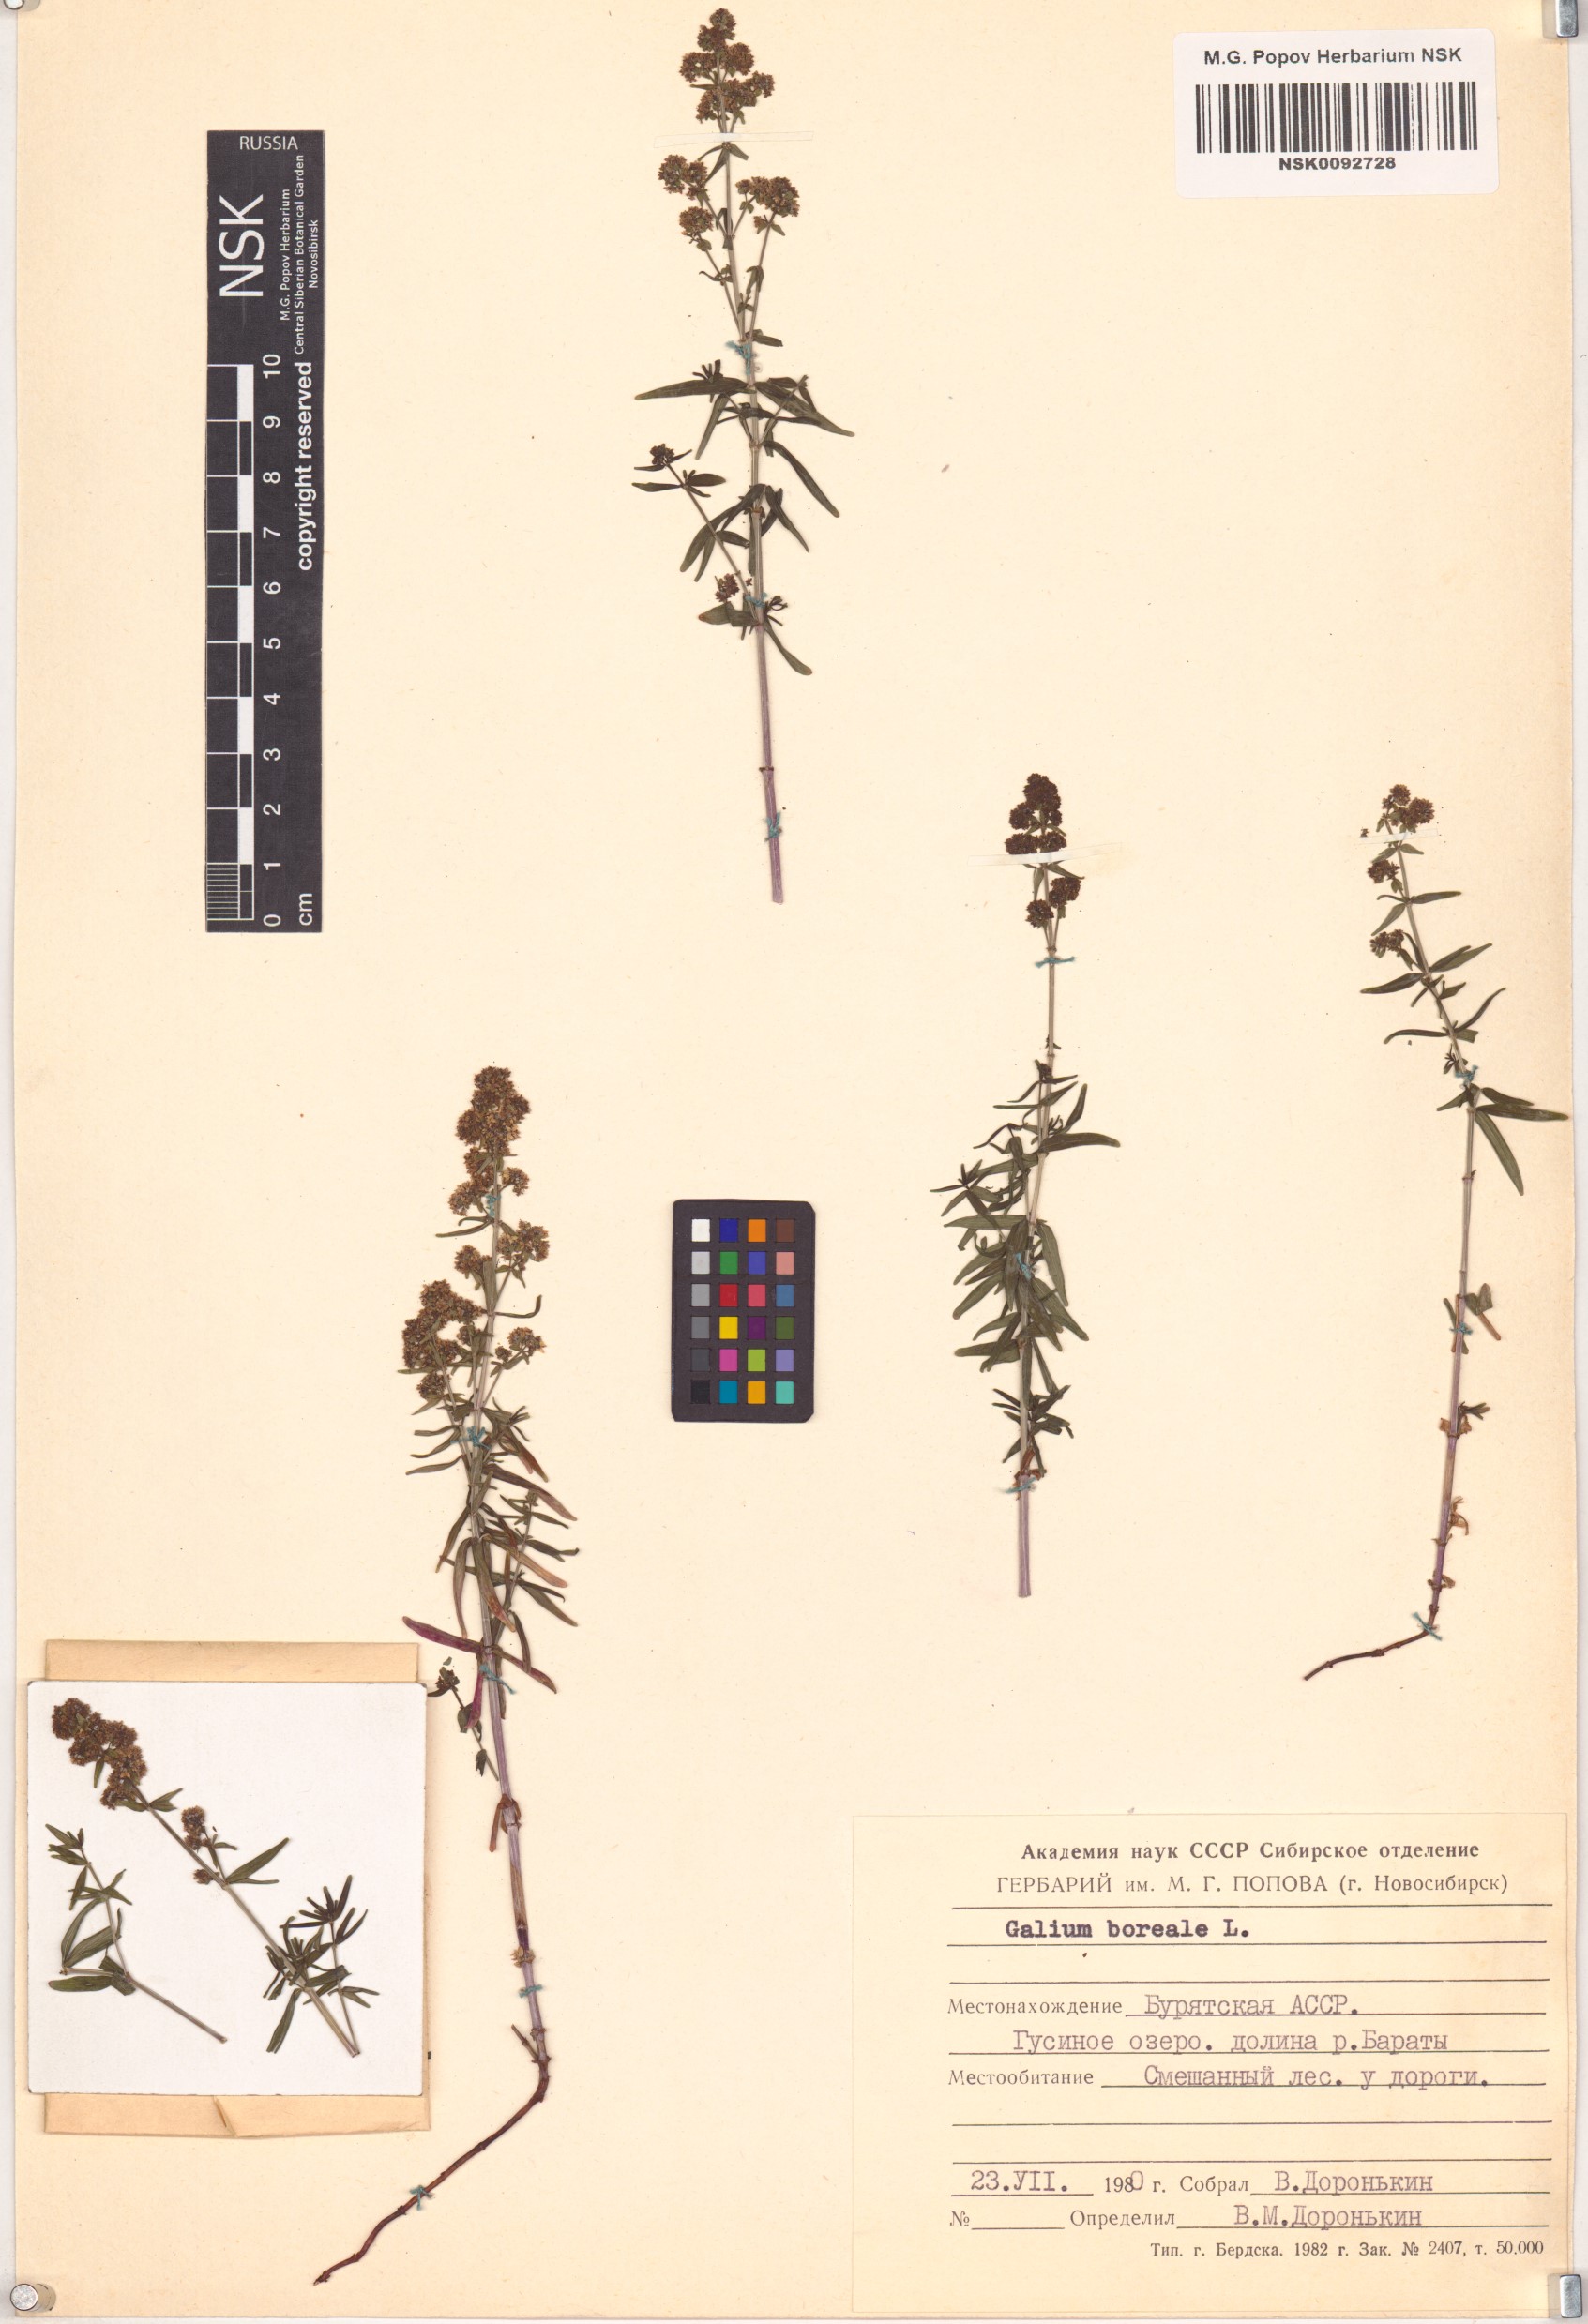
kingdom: Plantae
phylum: Tracheophyta
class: Magnoliopsida
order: Gentianales
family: Rubiaceae
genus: Galium
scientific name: Galium boreale
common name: Northern bedstraw
